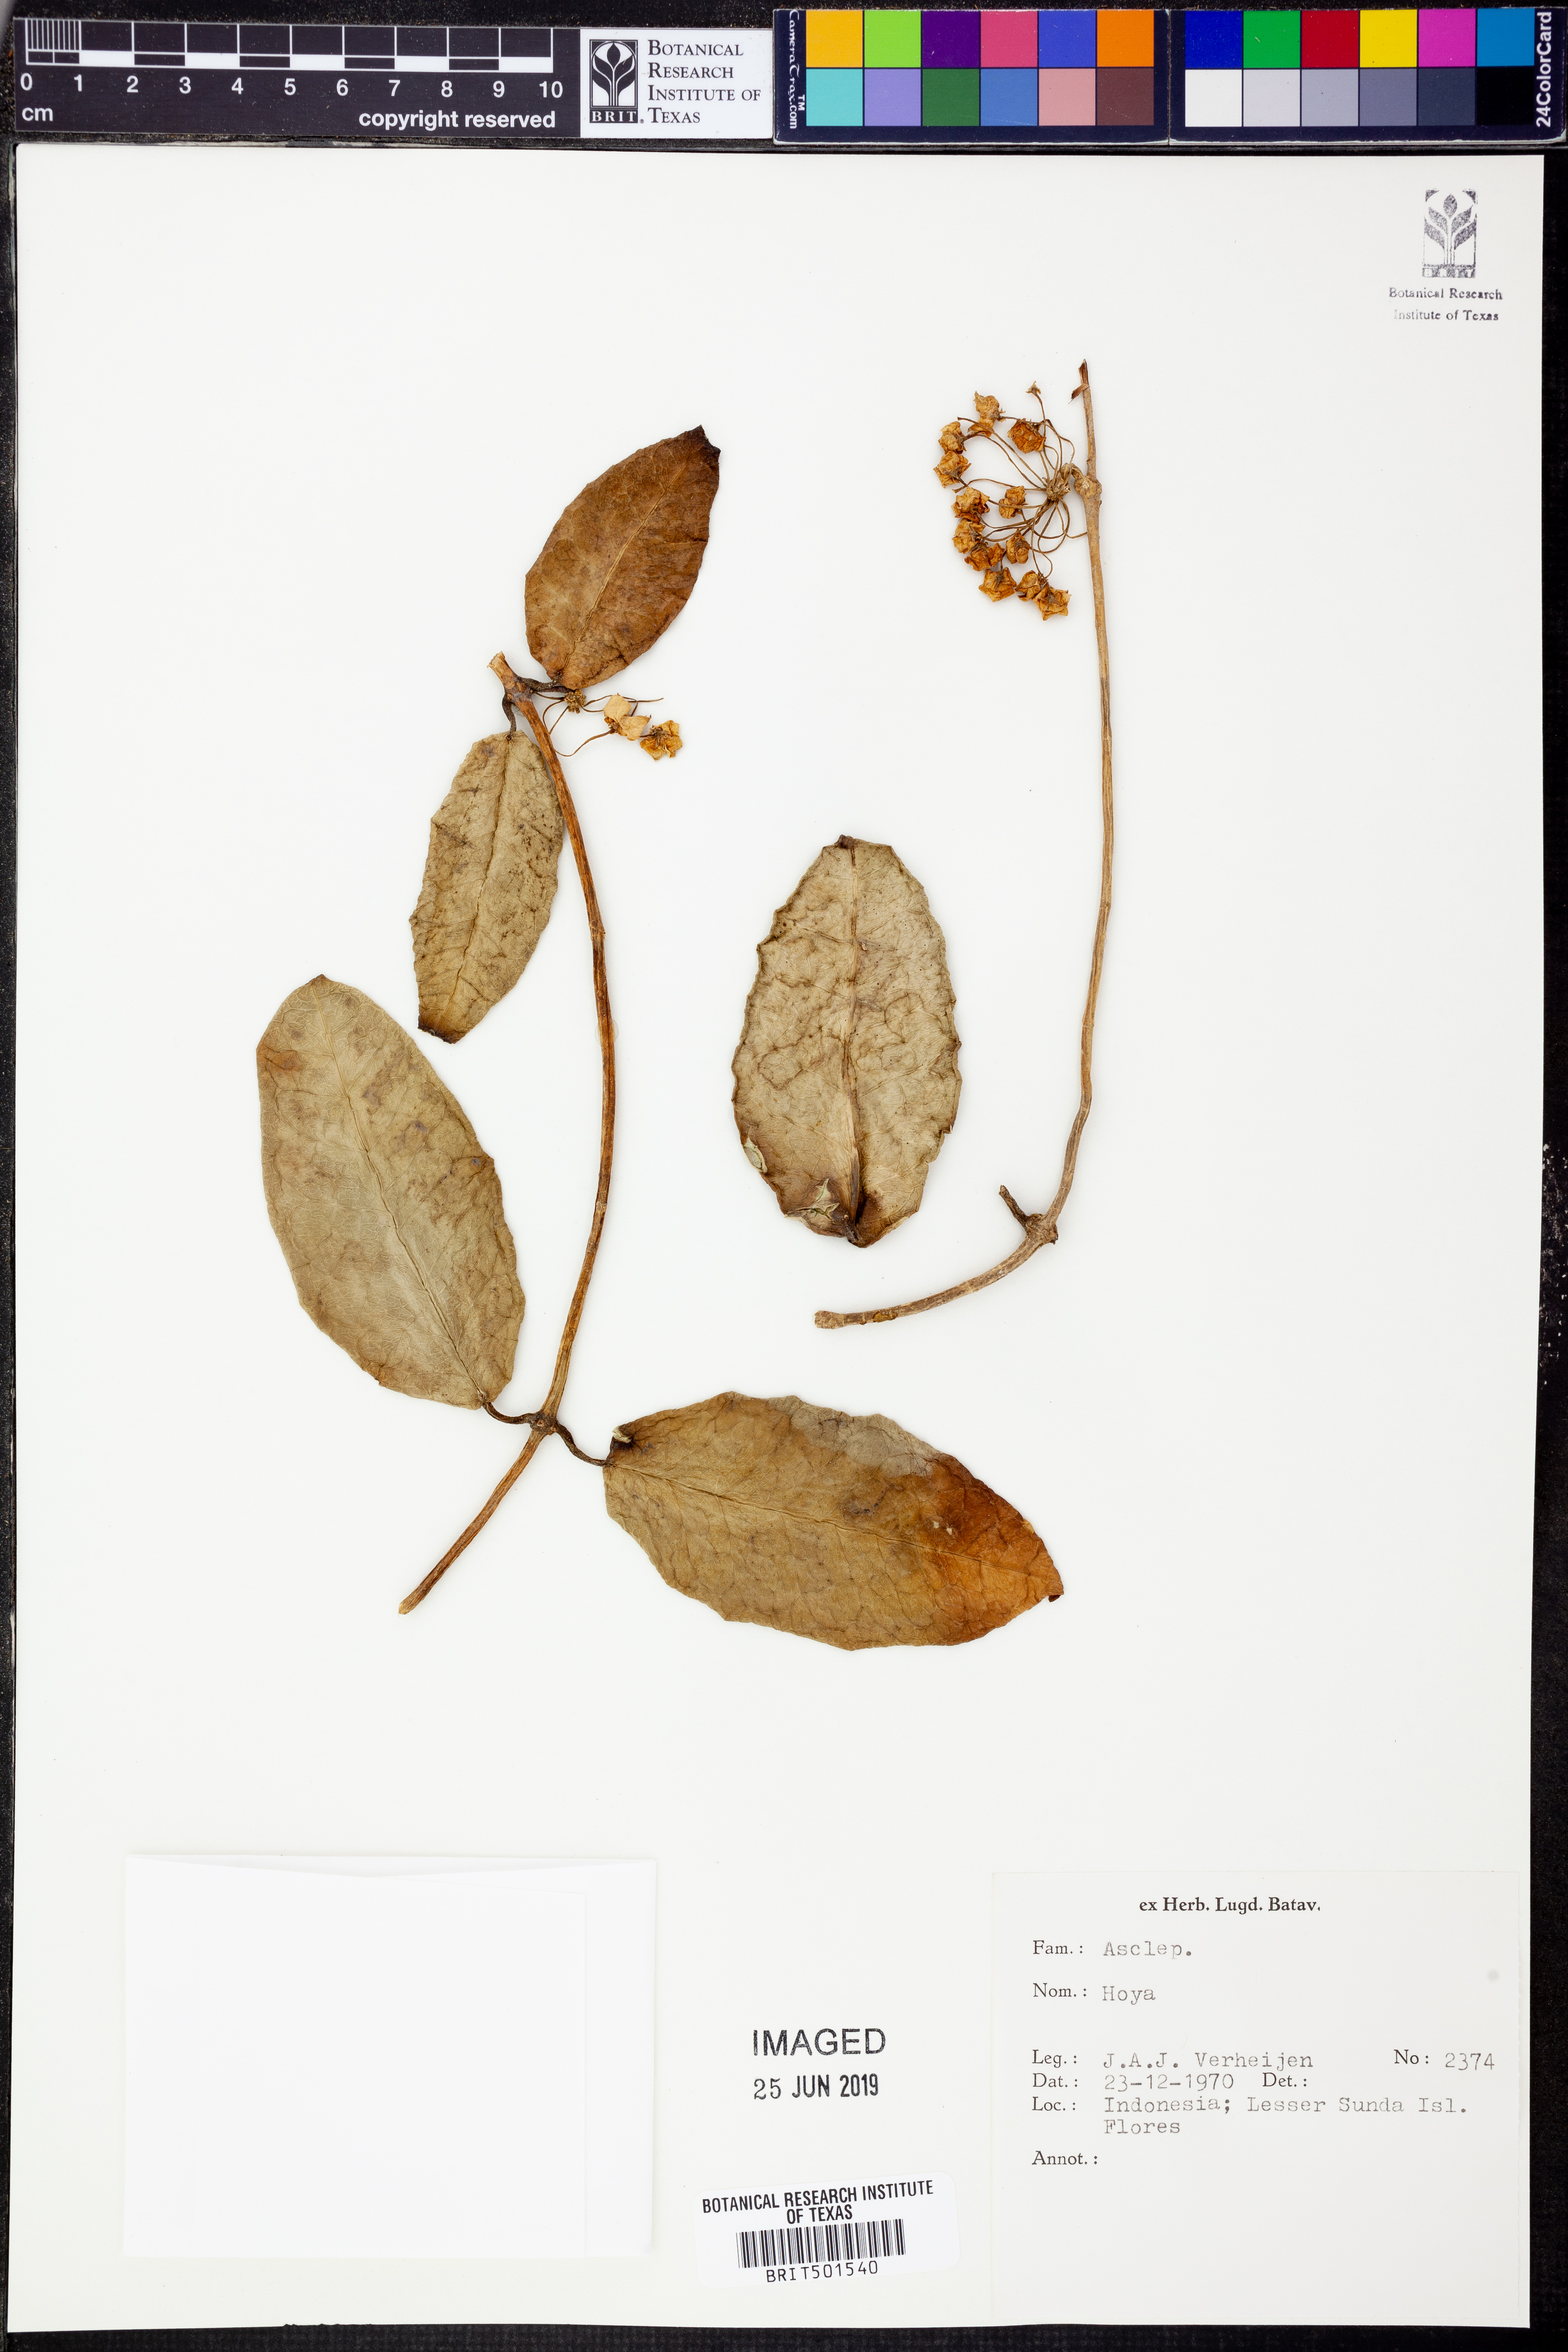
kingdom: Plantae
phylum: Tracheophyta
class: Magnoliopsida
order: Gentianales
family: Apocynaceae
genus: Hoya
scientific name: Hoya
